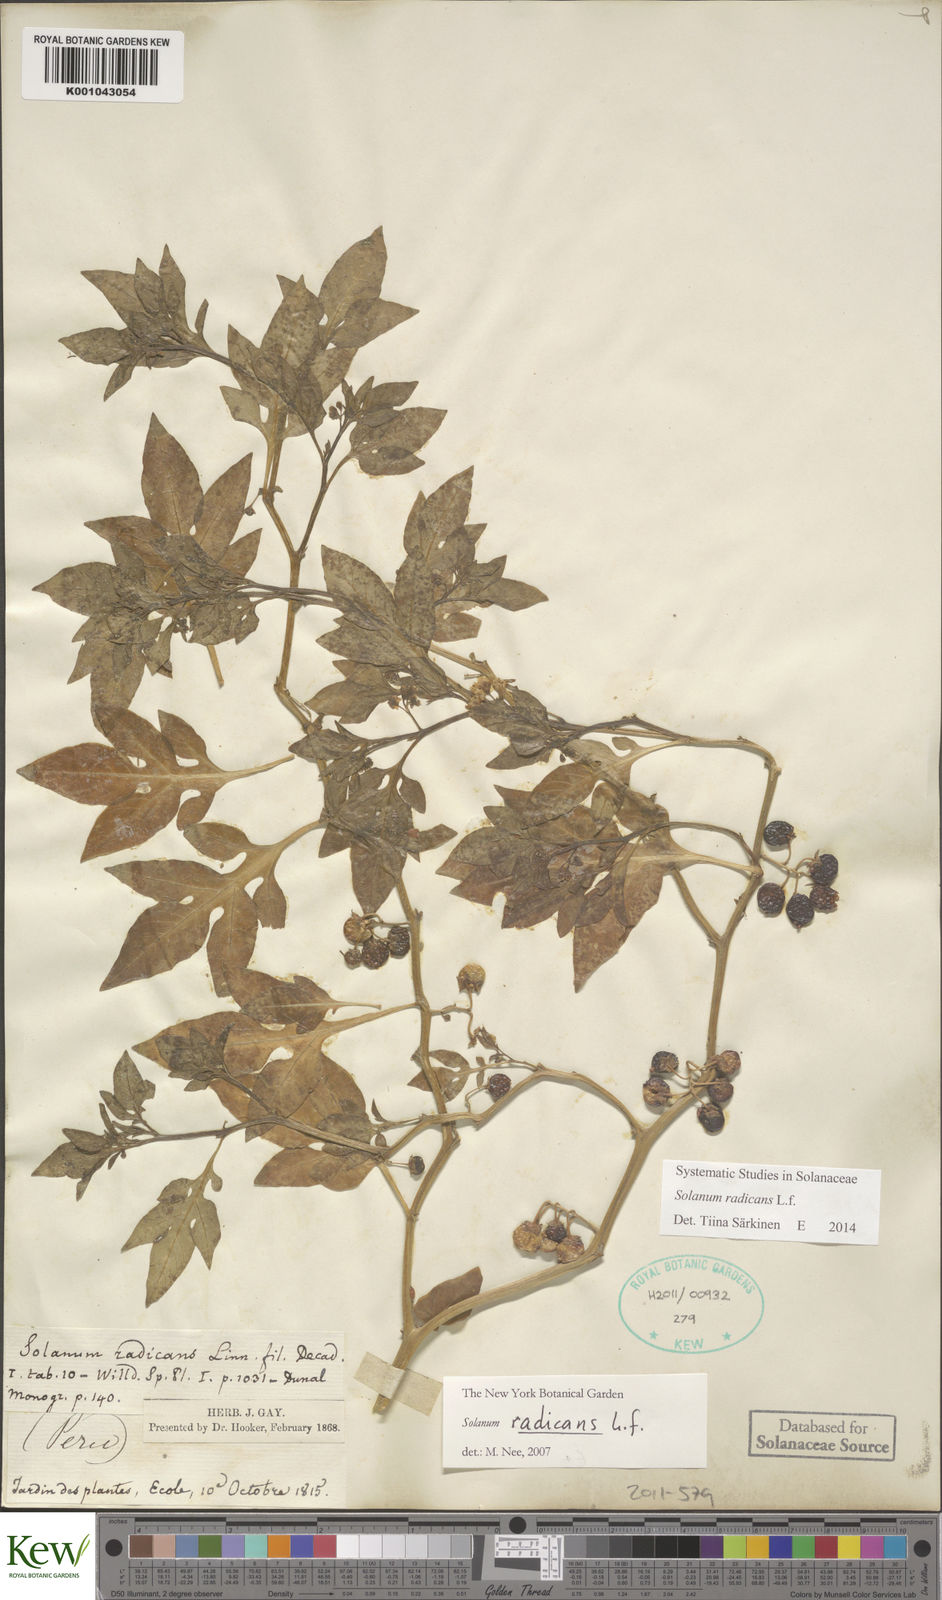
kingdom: Plantae
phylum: Tracheophyta
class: Magnoliopsida
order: Solanales
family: Solanaceae
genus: Solanum
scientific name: Solanum radicans
